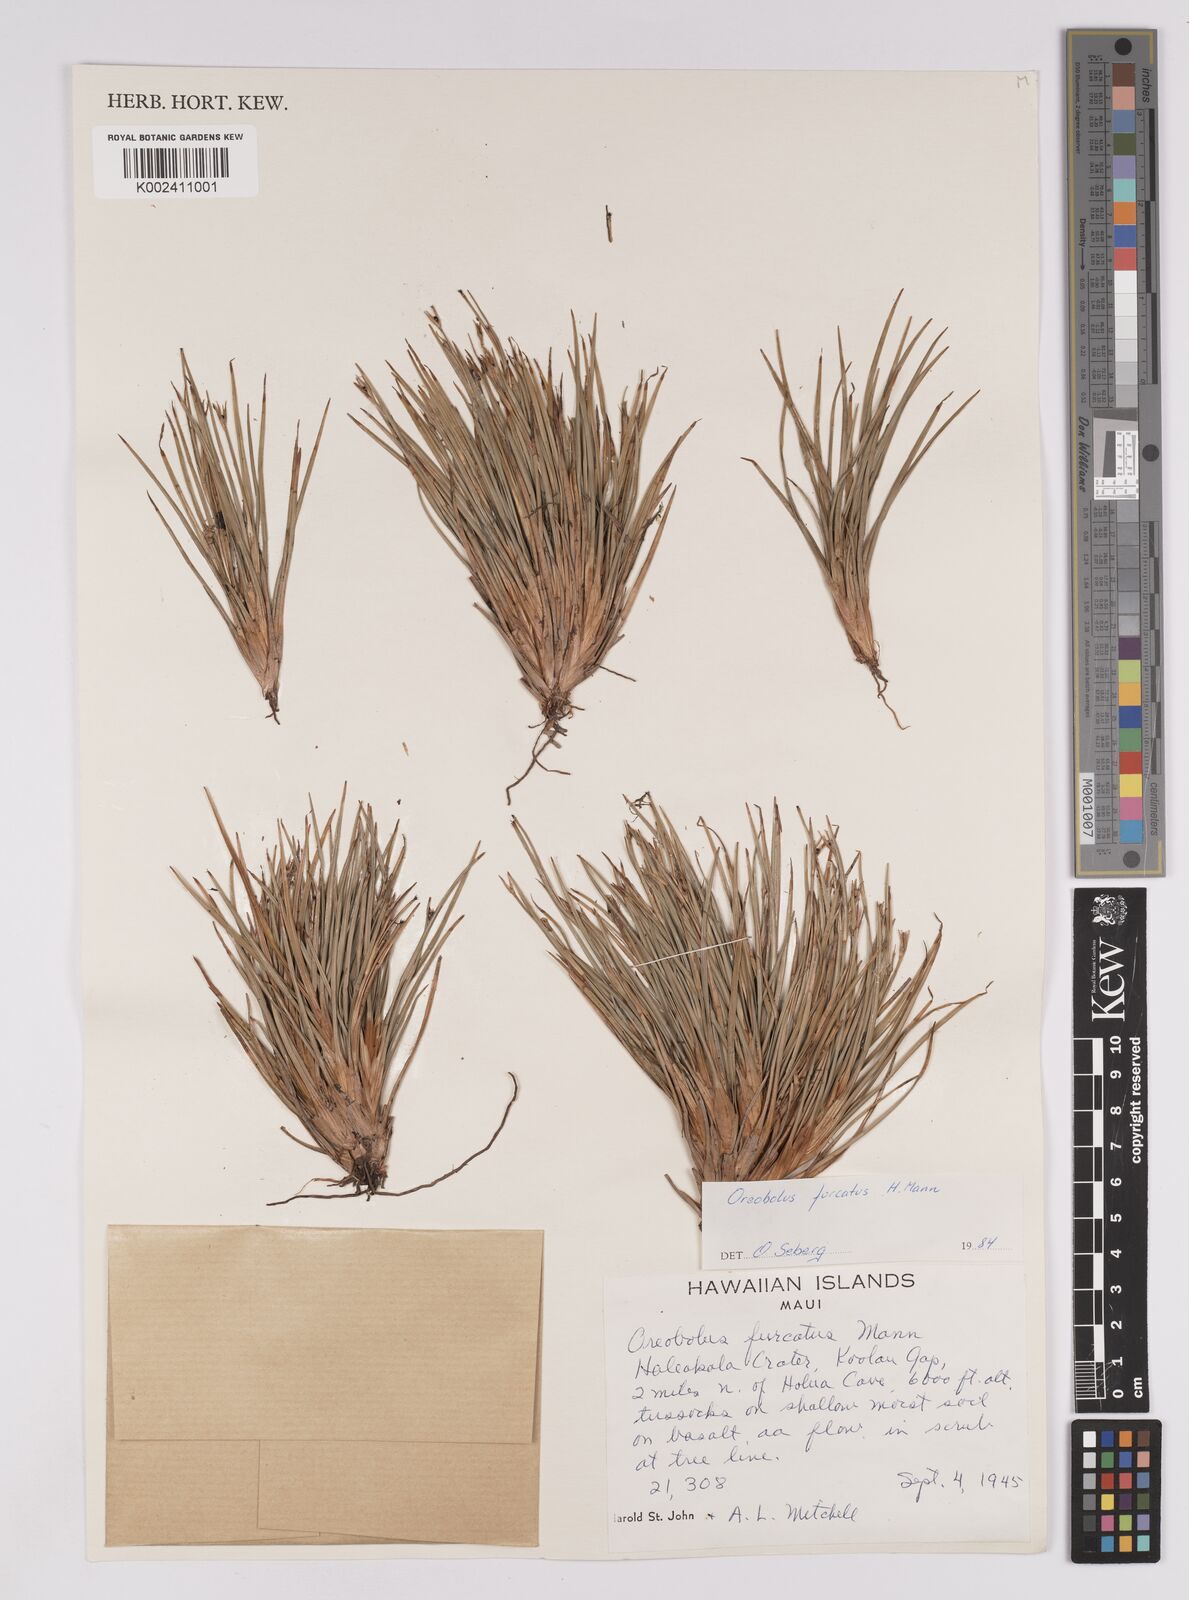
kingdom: Plantae
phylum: Tracheophyta
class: Liliopsida
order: Poales
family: Cyperaceae
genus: Oreobolus
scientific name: Oreobolus
